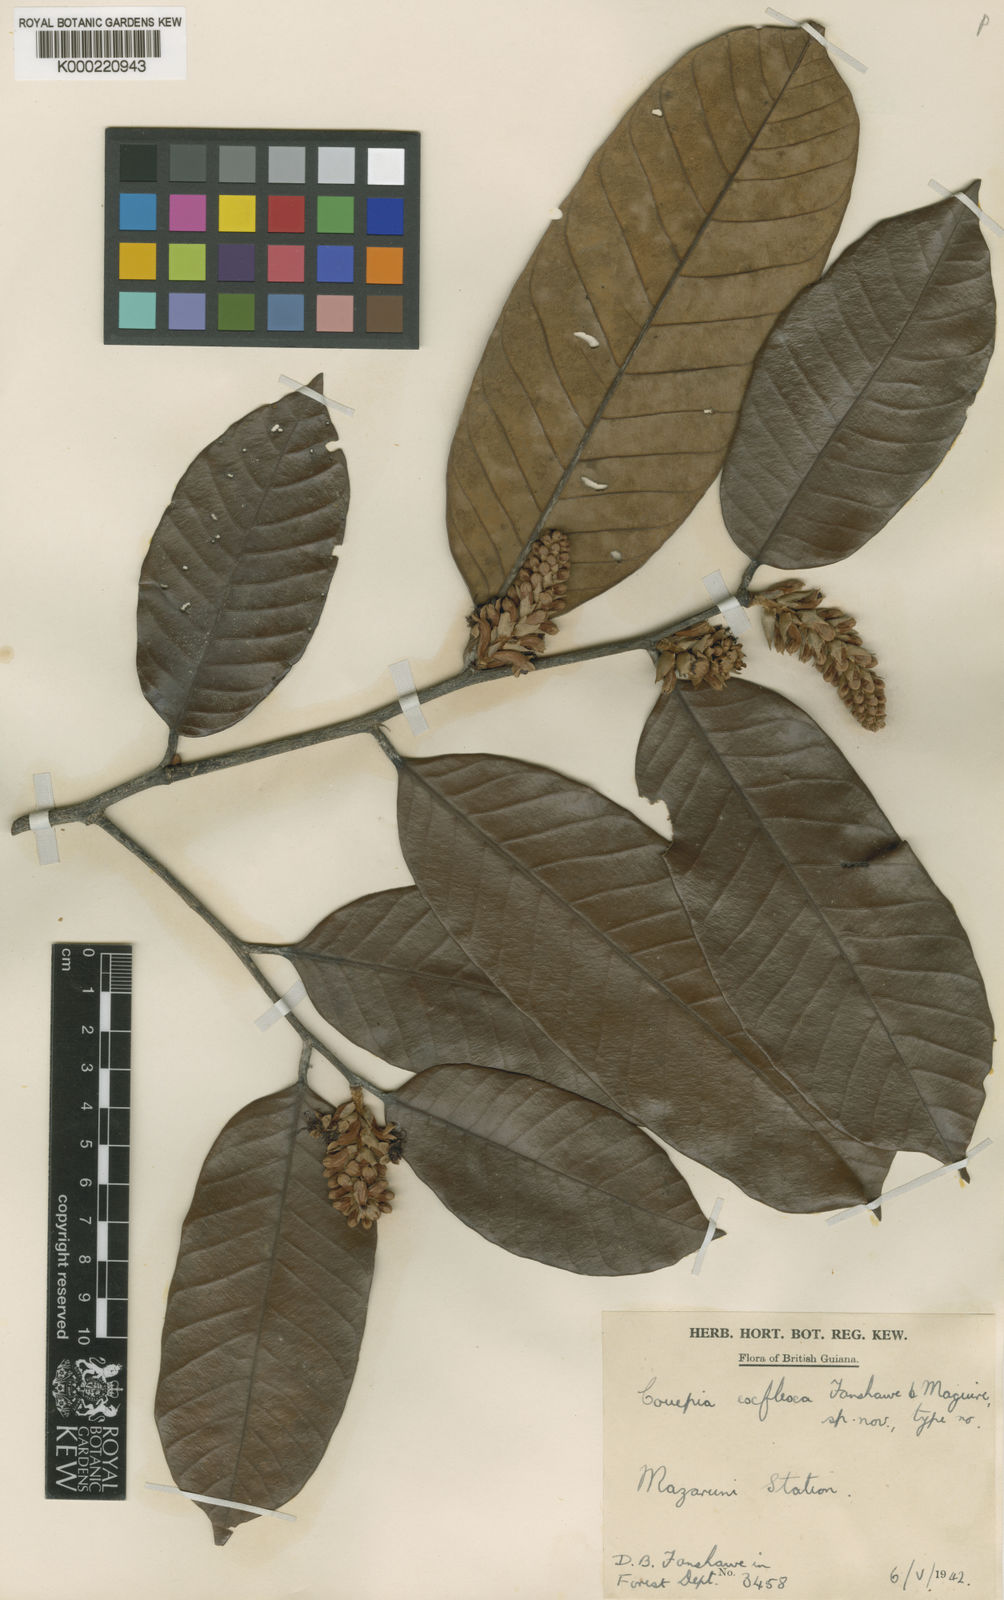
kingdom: Plantae
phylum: Tracheophyta
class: Magnoliopsida
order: Malpighiales
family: Chrysobalanaceae
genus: Couepia
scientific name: Couepia exflexa
